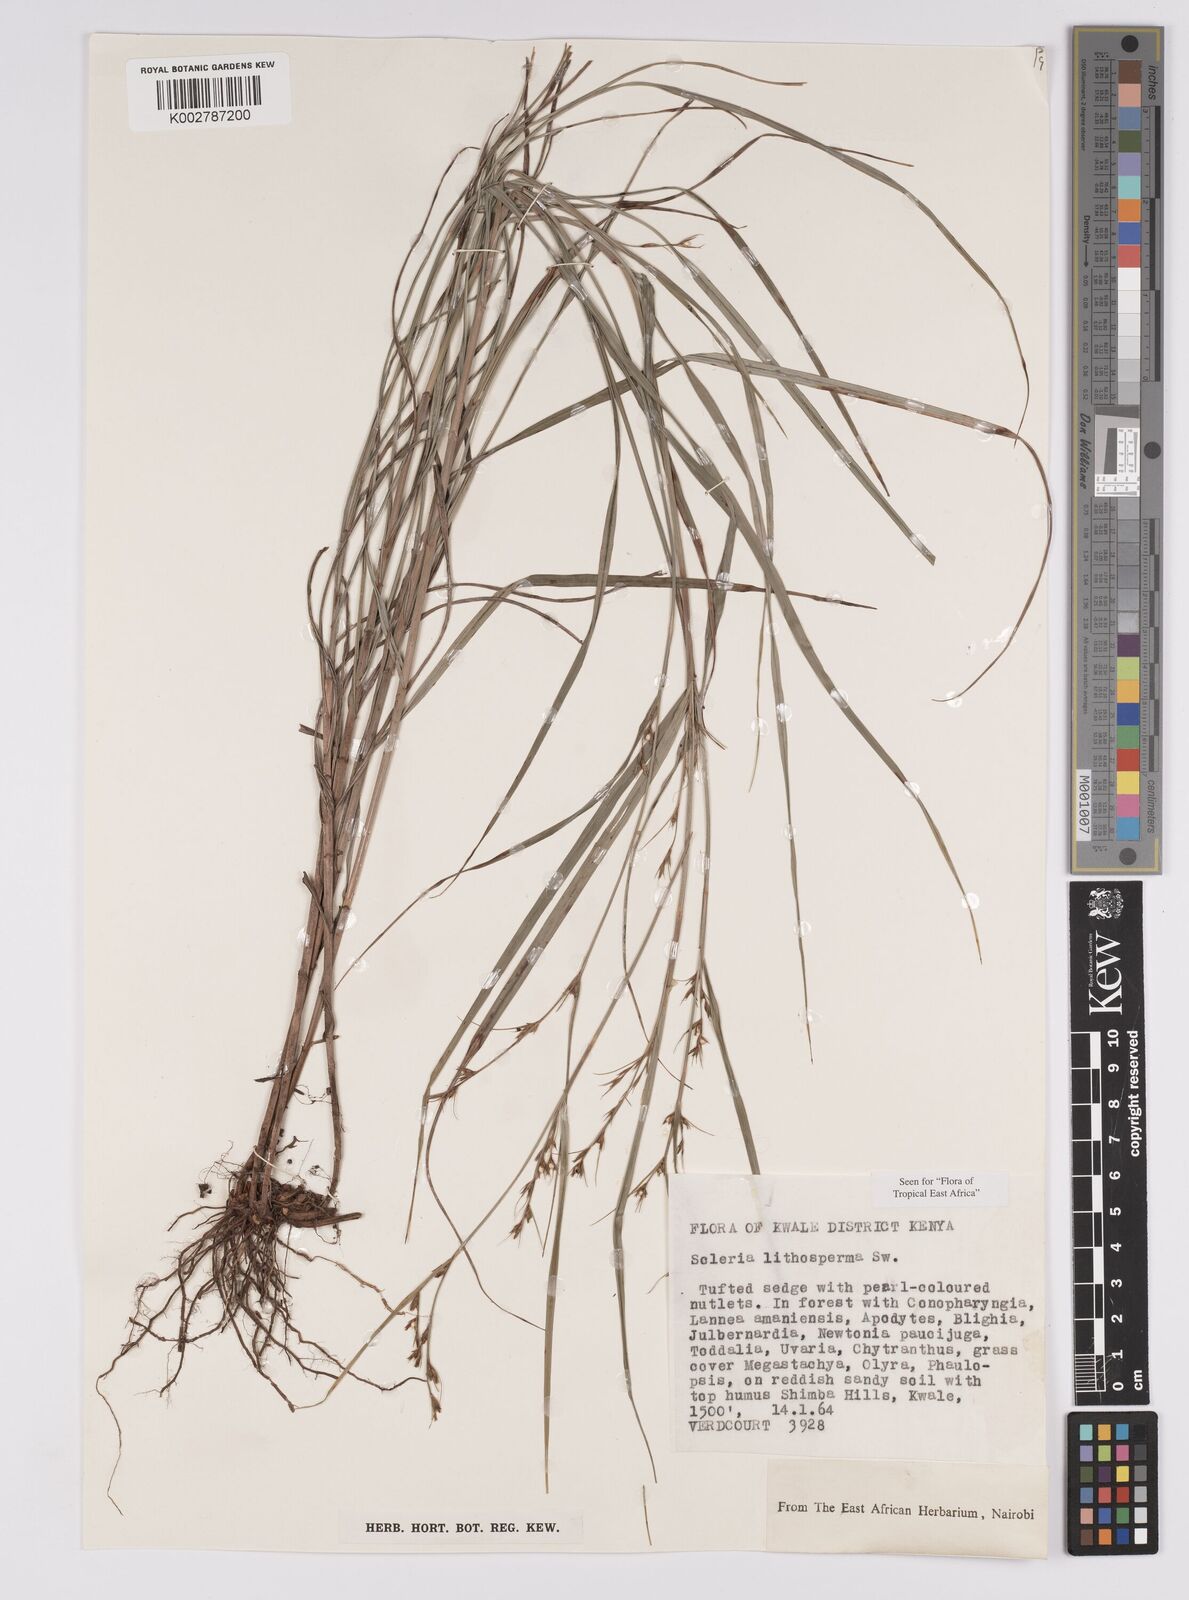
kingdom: Plantae
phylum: Tracheophyta
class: Liliopsida
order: Poales
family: Cyperaceae
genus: Scleria
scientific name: Scleria lithosperma
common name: Florida keys nut-rush
